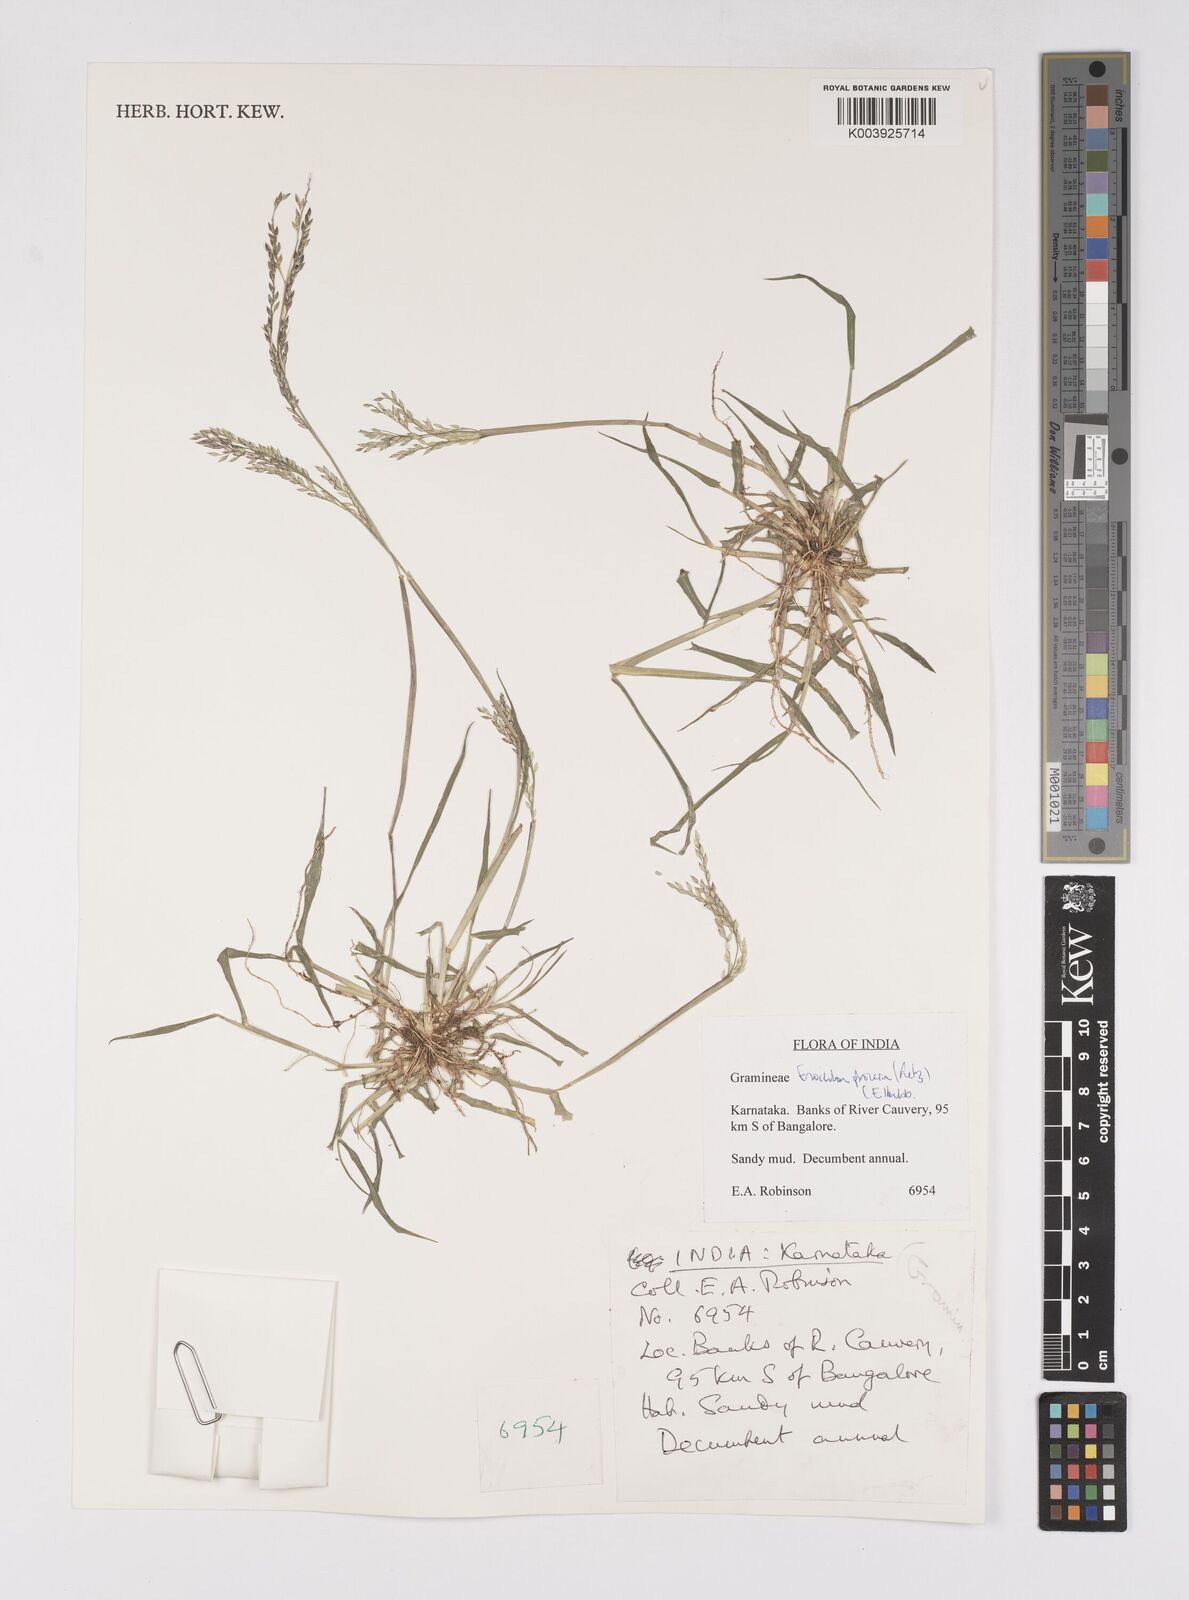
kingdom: Plantae
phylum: Tracheophyta
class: Liliopsida
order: Poales
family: Poaceae
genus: Eriochloa
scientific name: Eriochloa procera
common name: Spring grass
